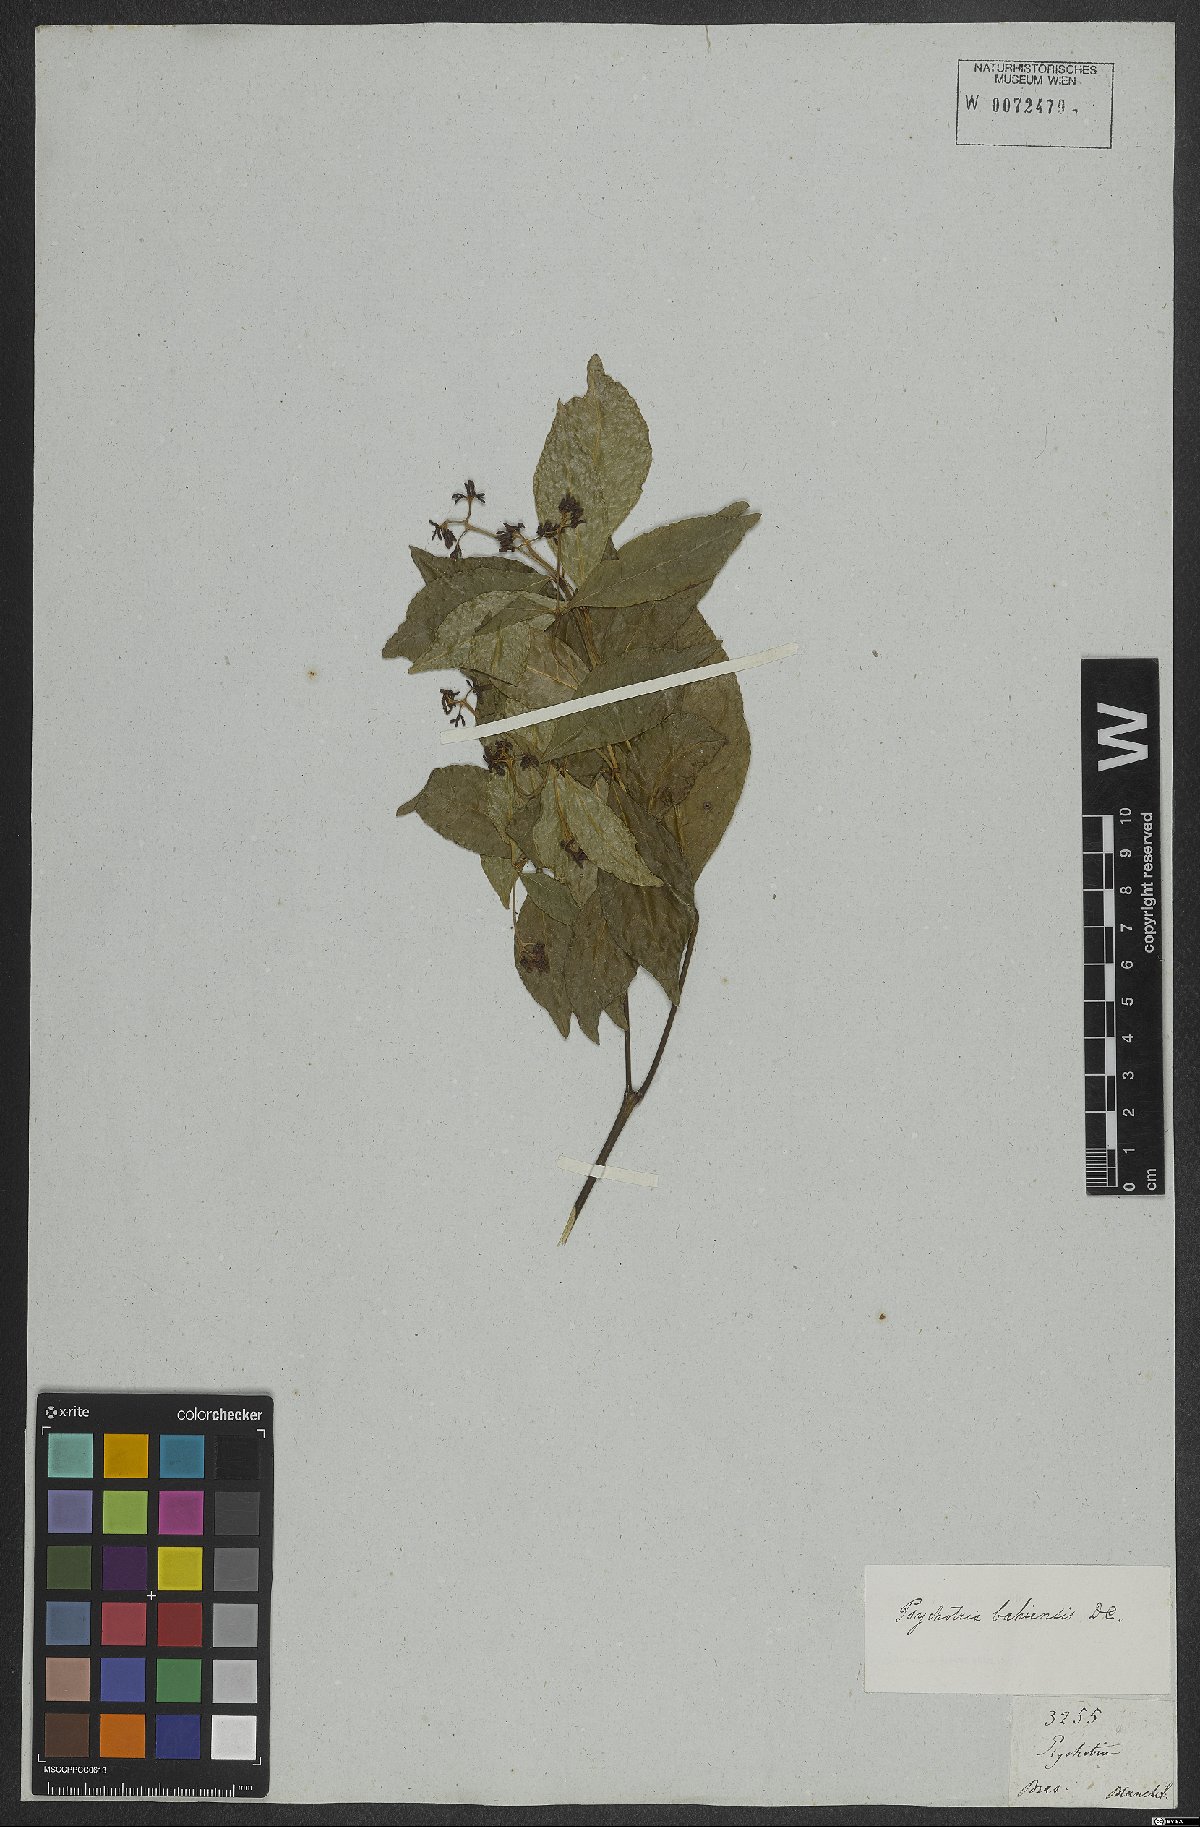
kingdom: Plantae
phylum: Tracheophyta
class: Magnoliopsida
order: Gentianales
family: Rubiaceae
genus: Psychotria
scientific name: Psychotria bahiensis
